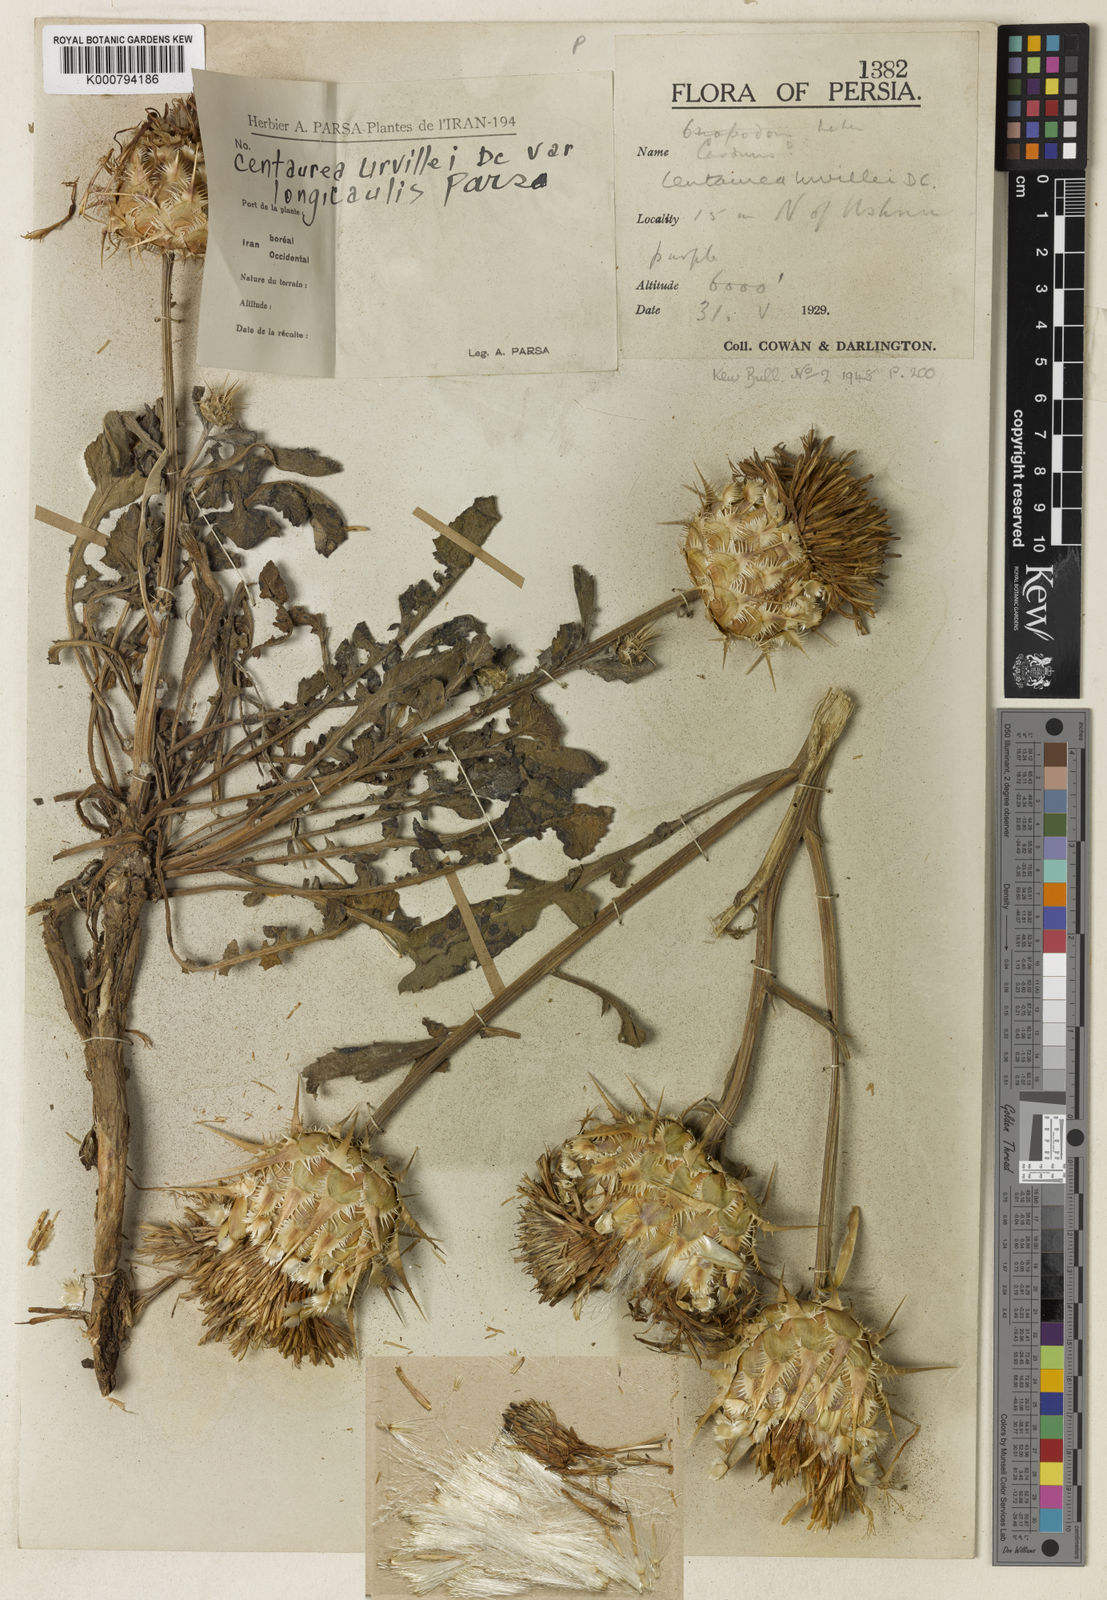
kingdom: Plantae
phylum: Tracheophyta
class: Magnoliopsida
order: Asterales
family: Asteraceae
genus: Centaurea
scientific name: Centaurea urvillei
